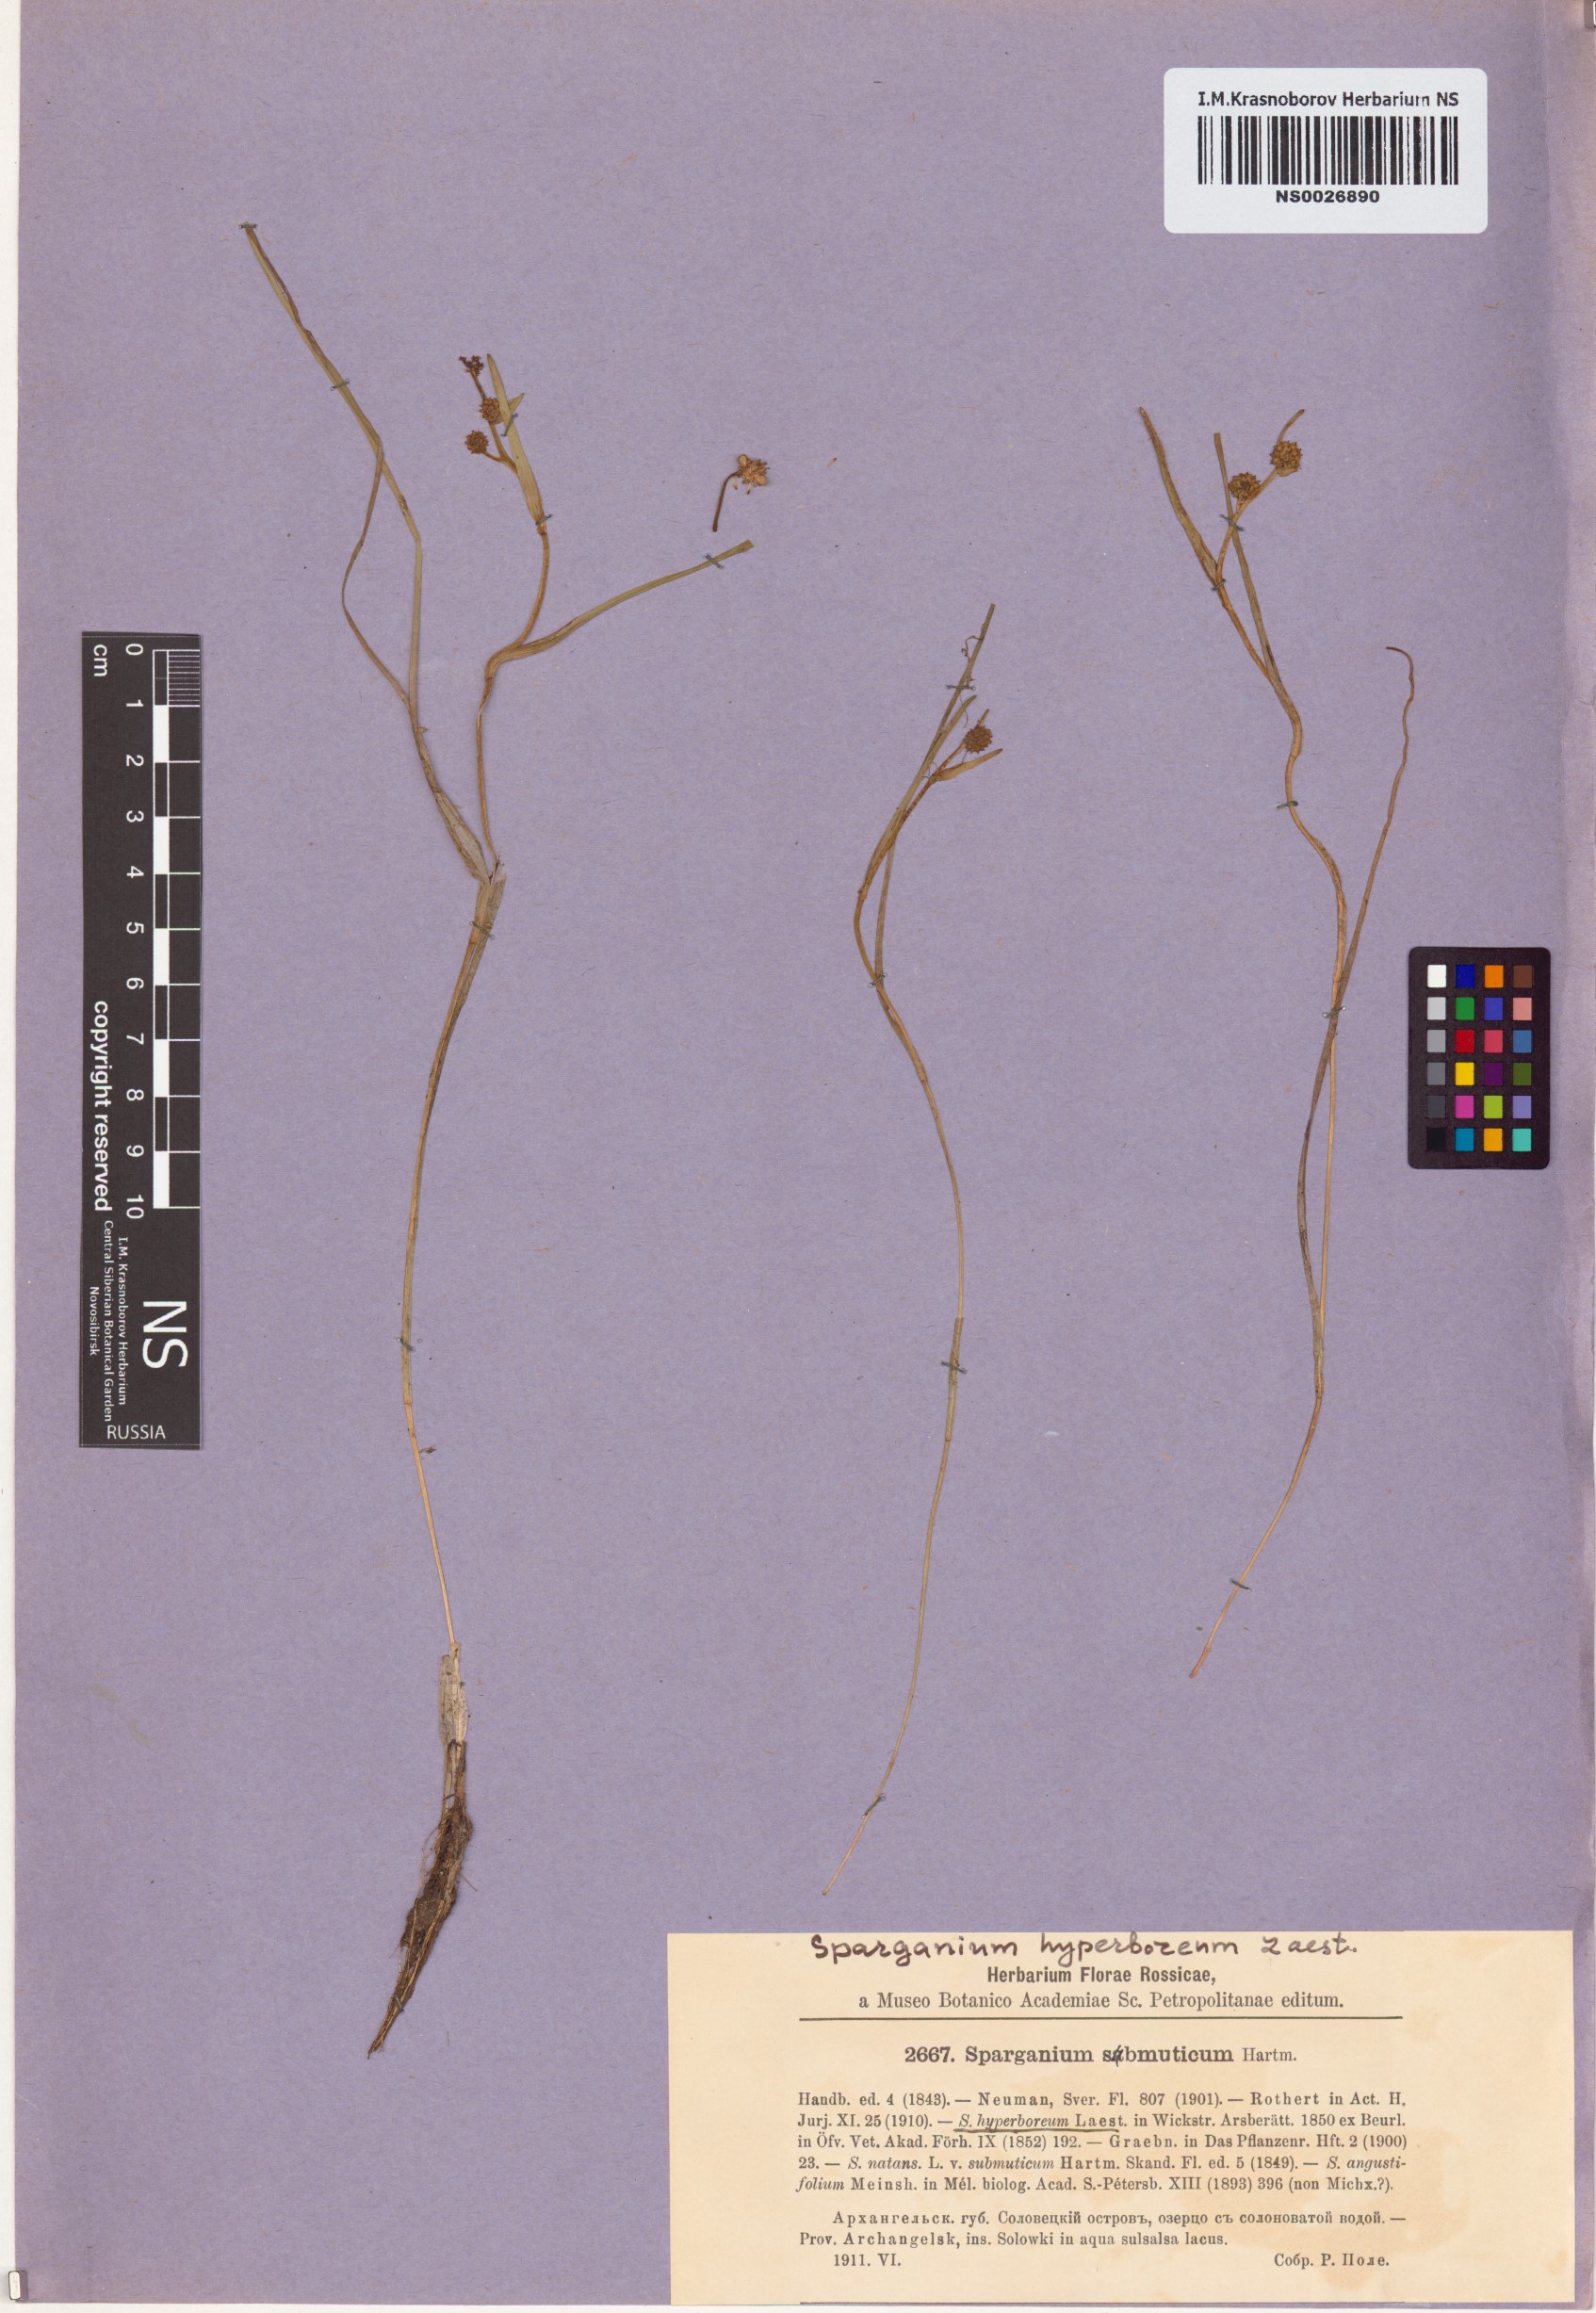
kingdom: Plantae
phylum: Tracheophyta
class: Liliopsida
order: Poales
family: Typhaceae
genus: Sparganium
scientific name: Sparganium hyperboreum
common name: Arctic burreed
